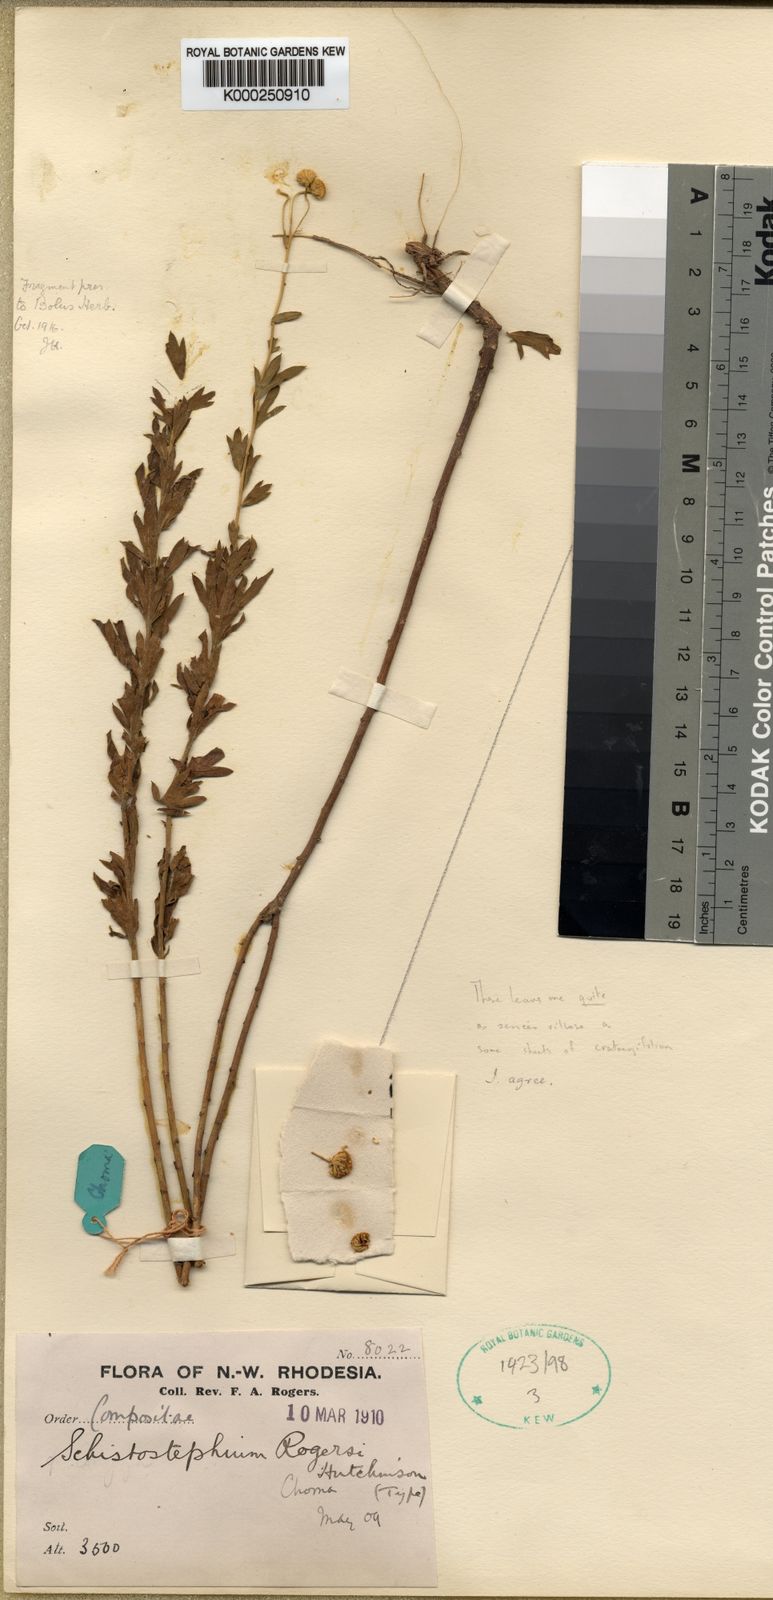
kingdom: Plantae
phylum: Tracheophyta
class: Magnoliopsida
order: Asterales
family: Asteraceae
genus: Schistostephium
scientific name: Schistostephium heptalobum
